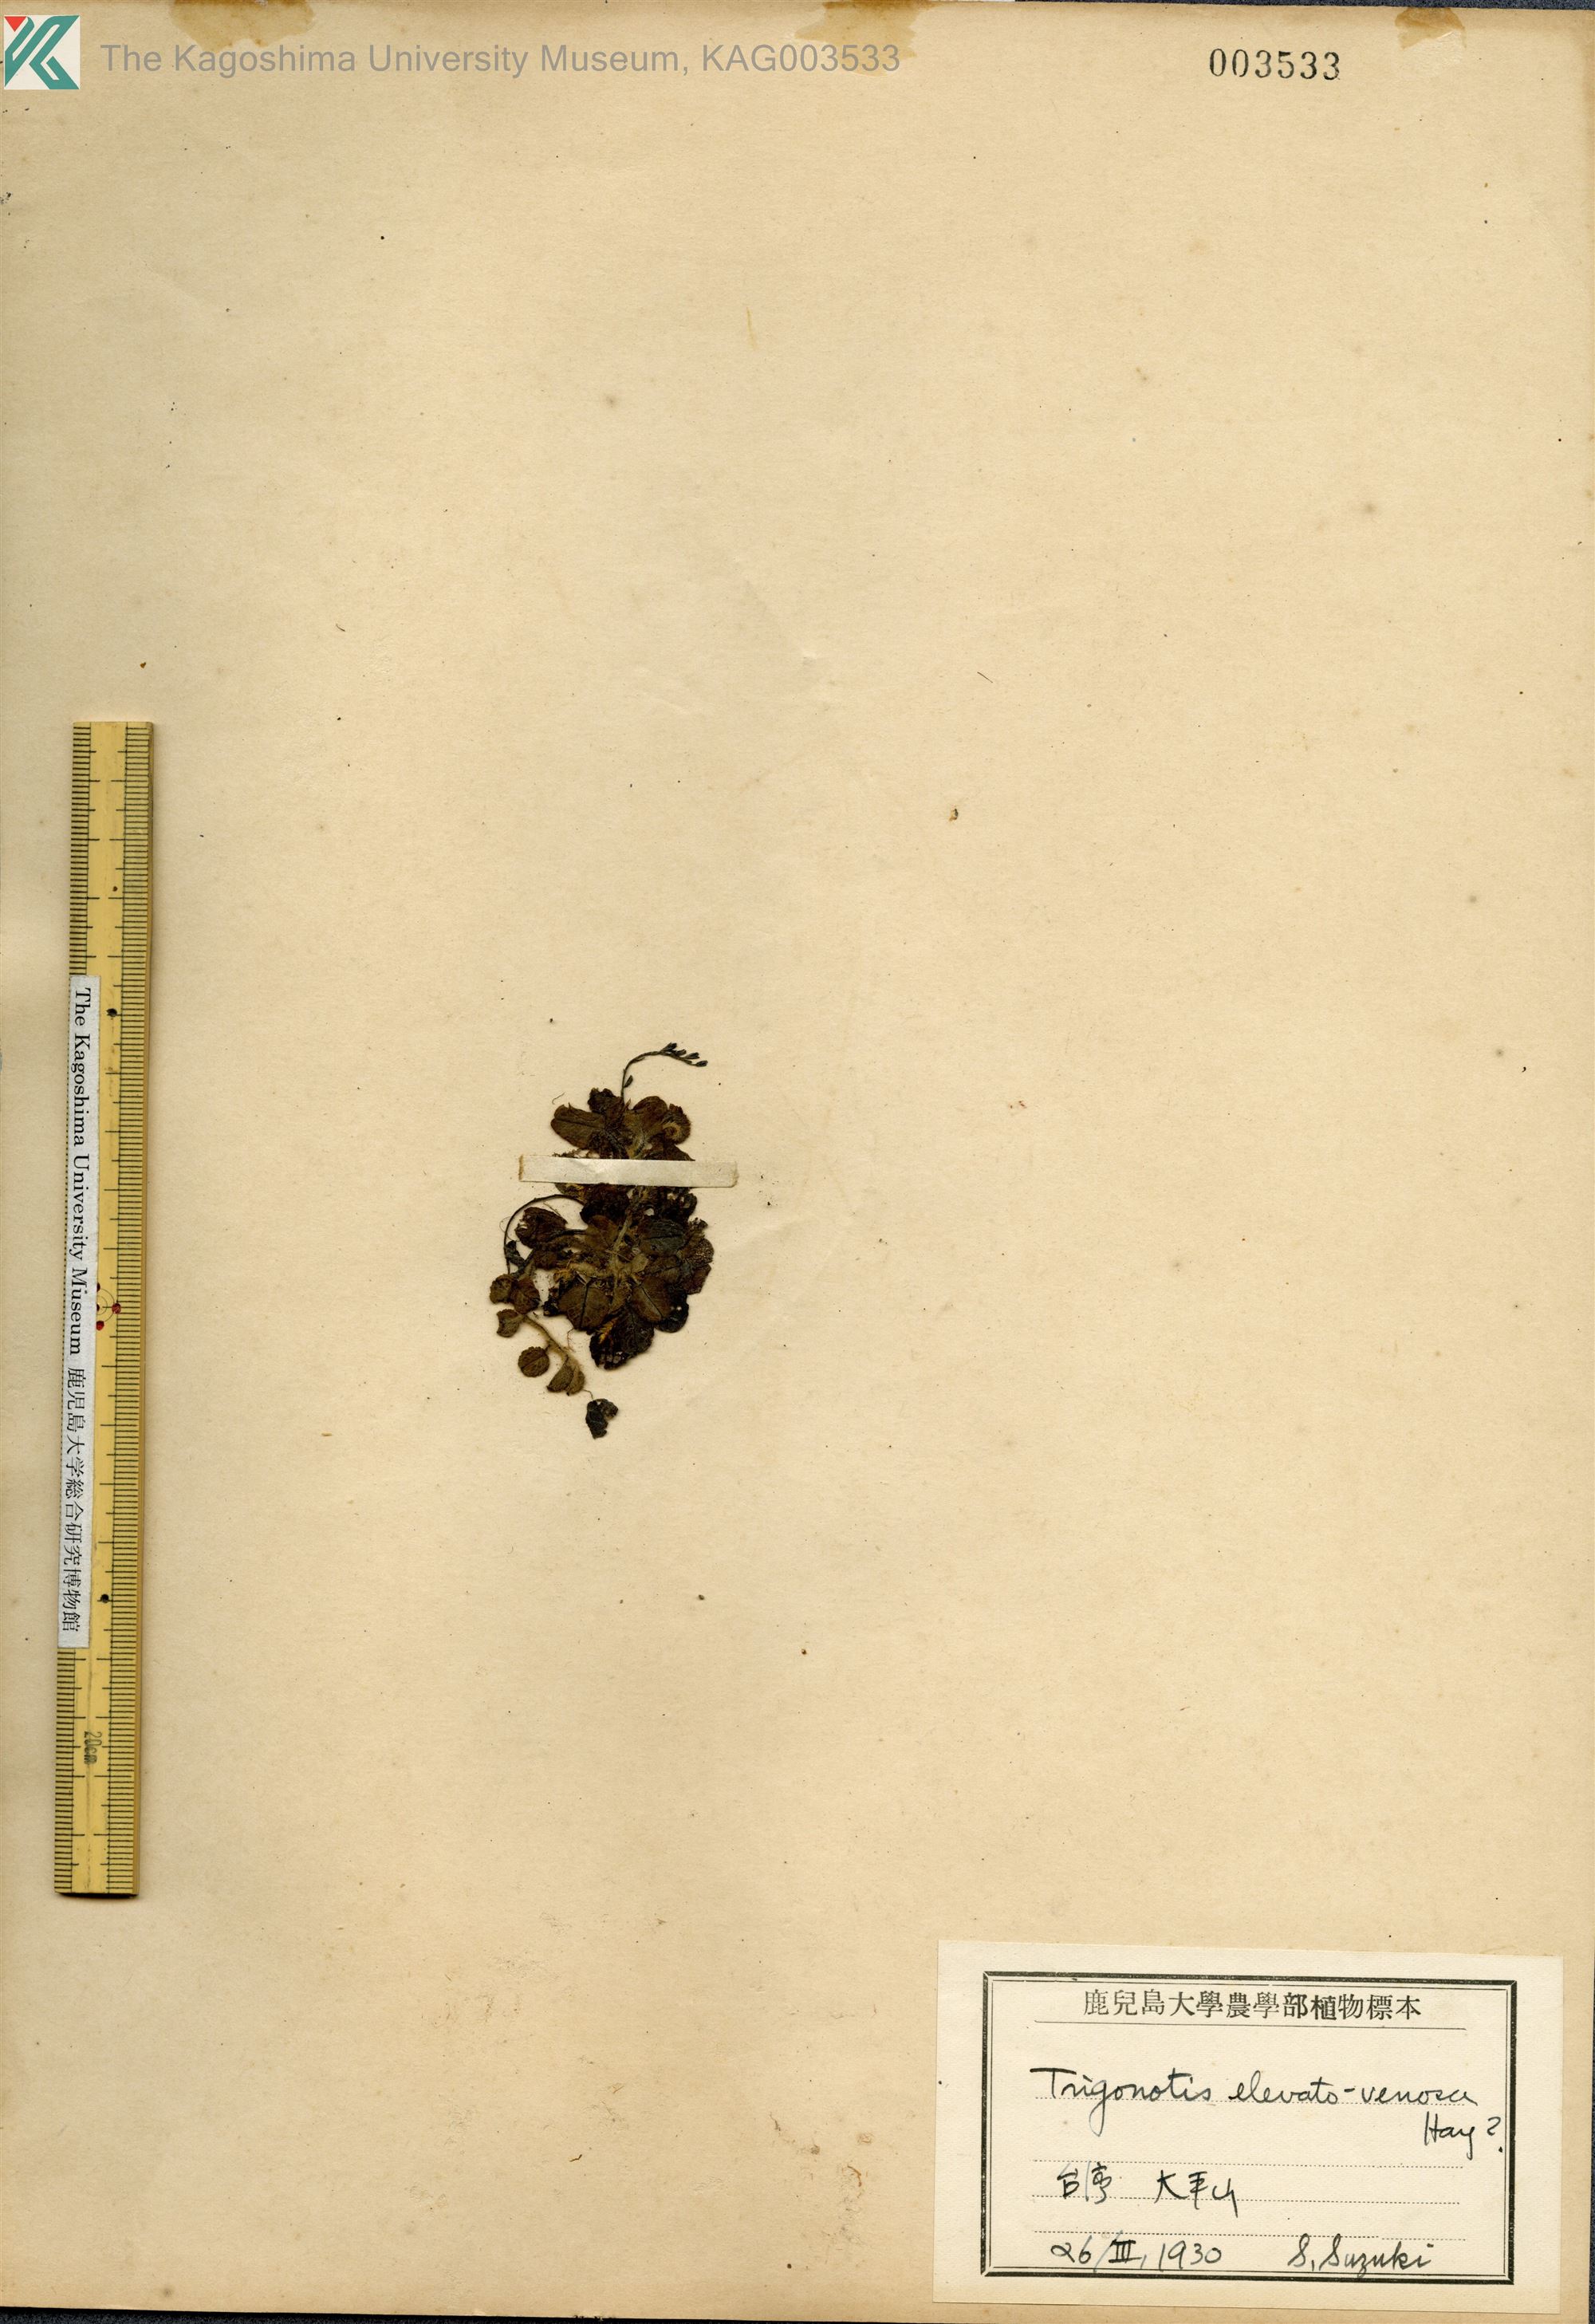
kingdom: Plantae
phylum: Tracheophyta
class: Magnoliopsida
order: Boraginales
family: Boraginaceae
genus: Trigonotis
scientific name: Trigonotis formosana
